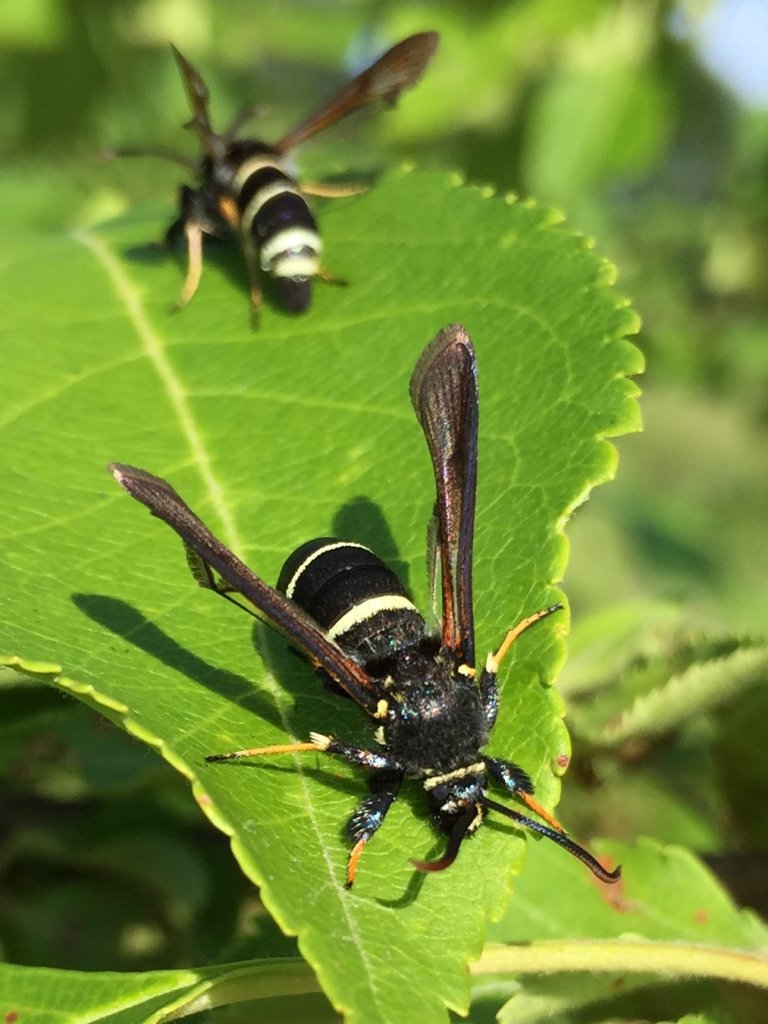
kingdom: Animalia
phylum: Arthropoda
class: Insecta
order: Lepidoptera
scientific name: Lepidoptera
